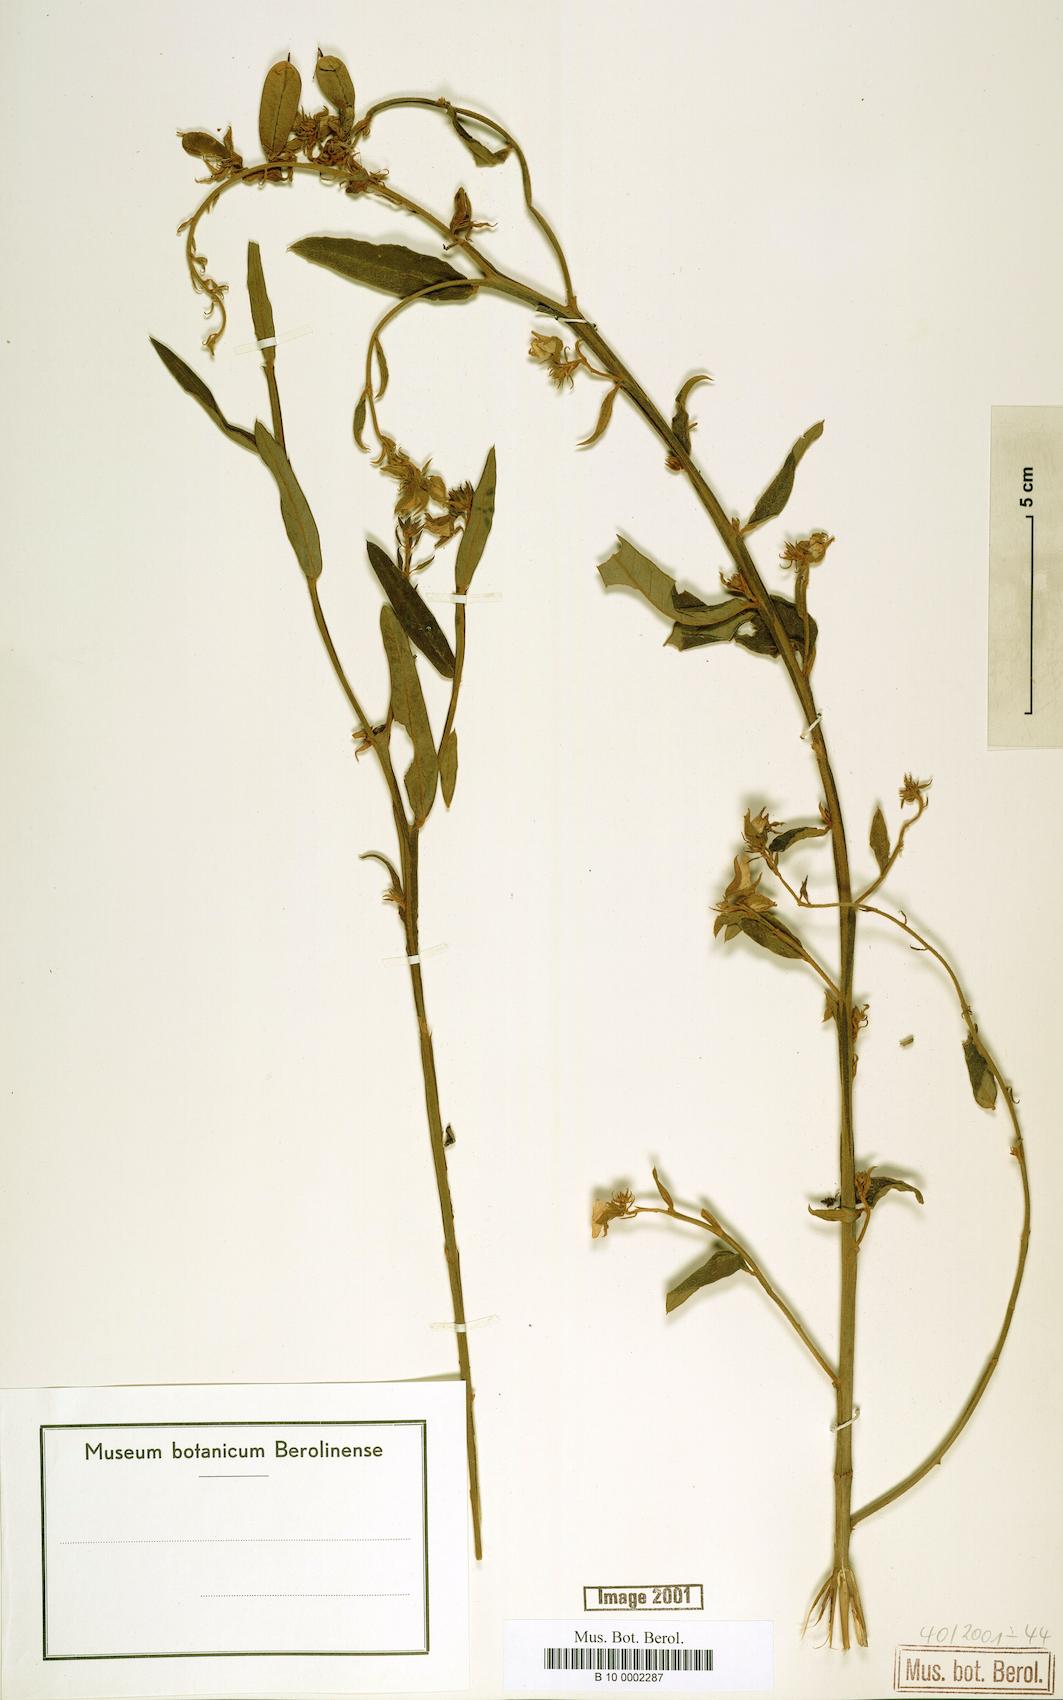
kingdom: Plantae
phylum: Tracheophyta
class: Magnoliopsida
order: Fabales
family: Fabaceae
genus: Crotalaria
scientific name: Crotalaria breviflora
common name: Short-flower crotalaria
